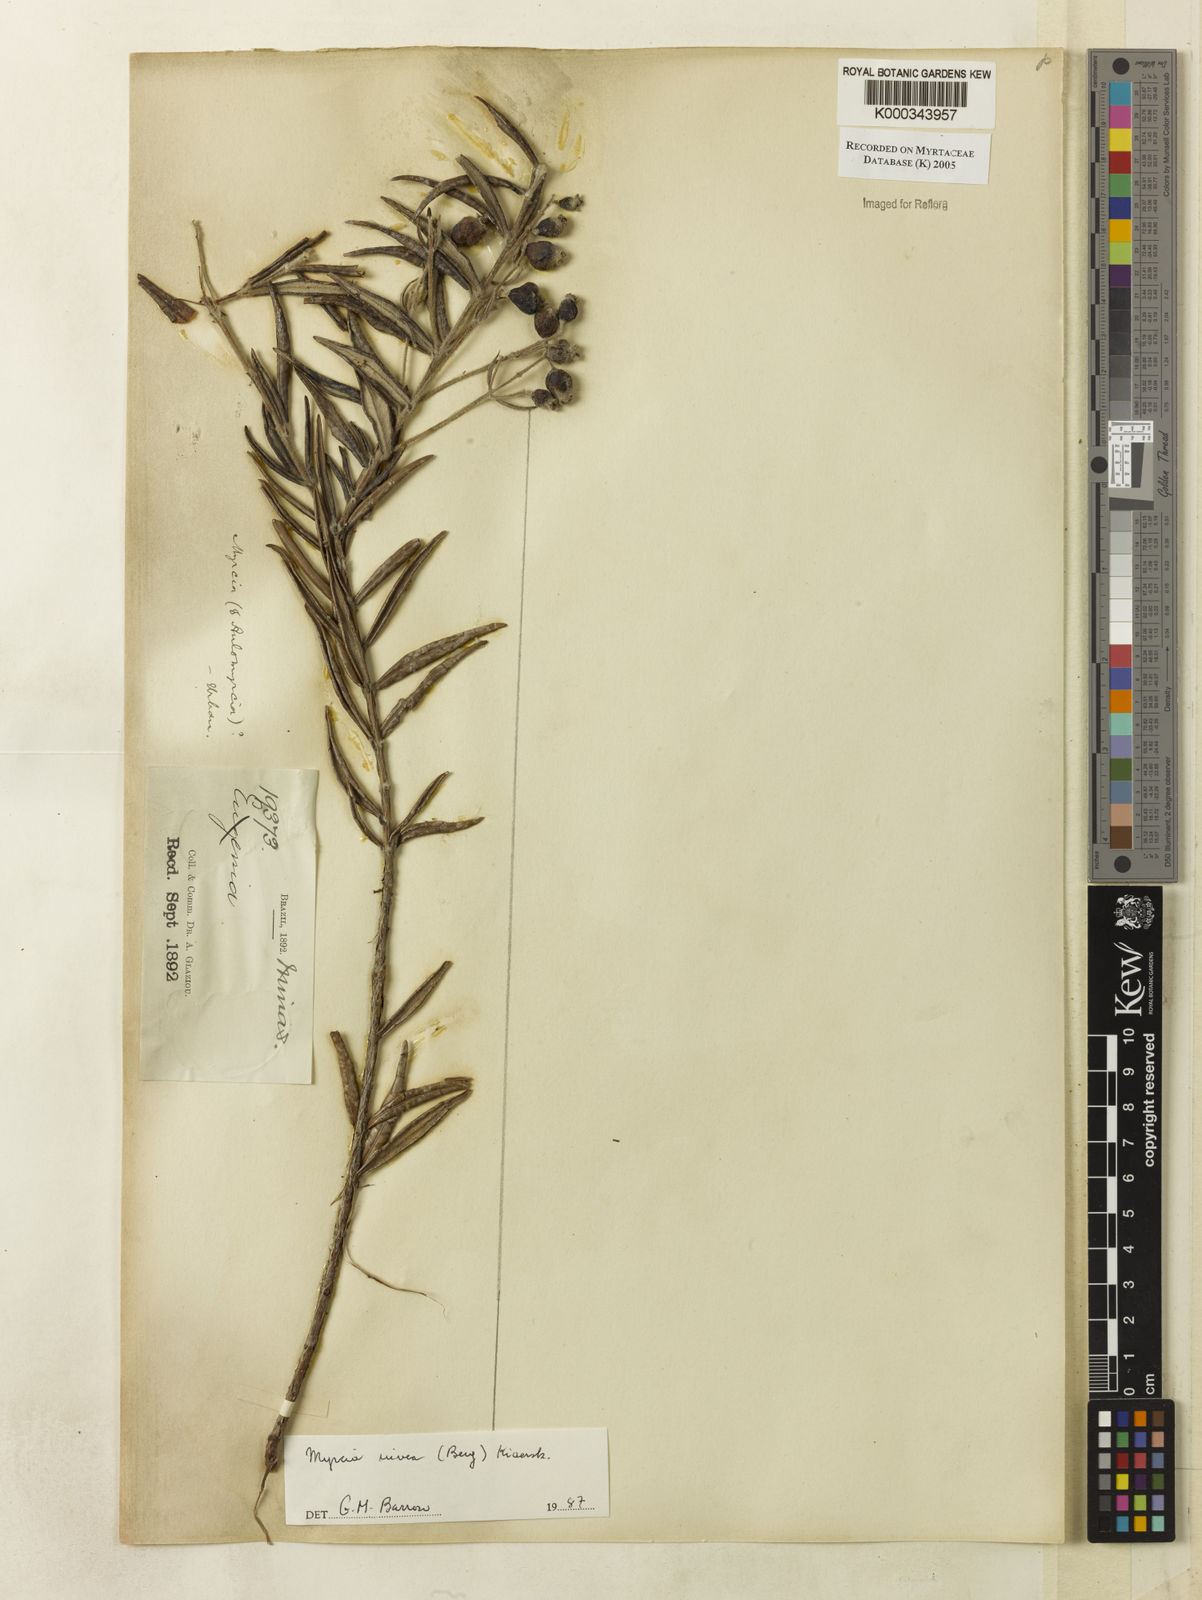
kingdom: Plantae
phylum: Tracheophyta
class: Magnoliopsida
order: Myrtales
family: Myrtaceae
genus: Myrcia
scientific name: Myrcia nivea
